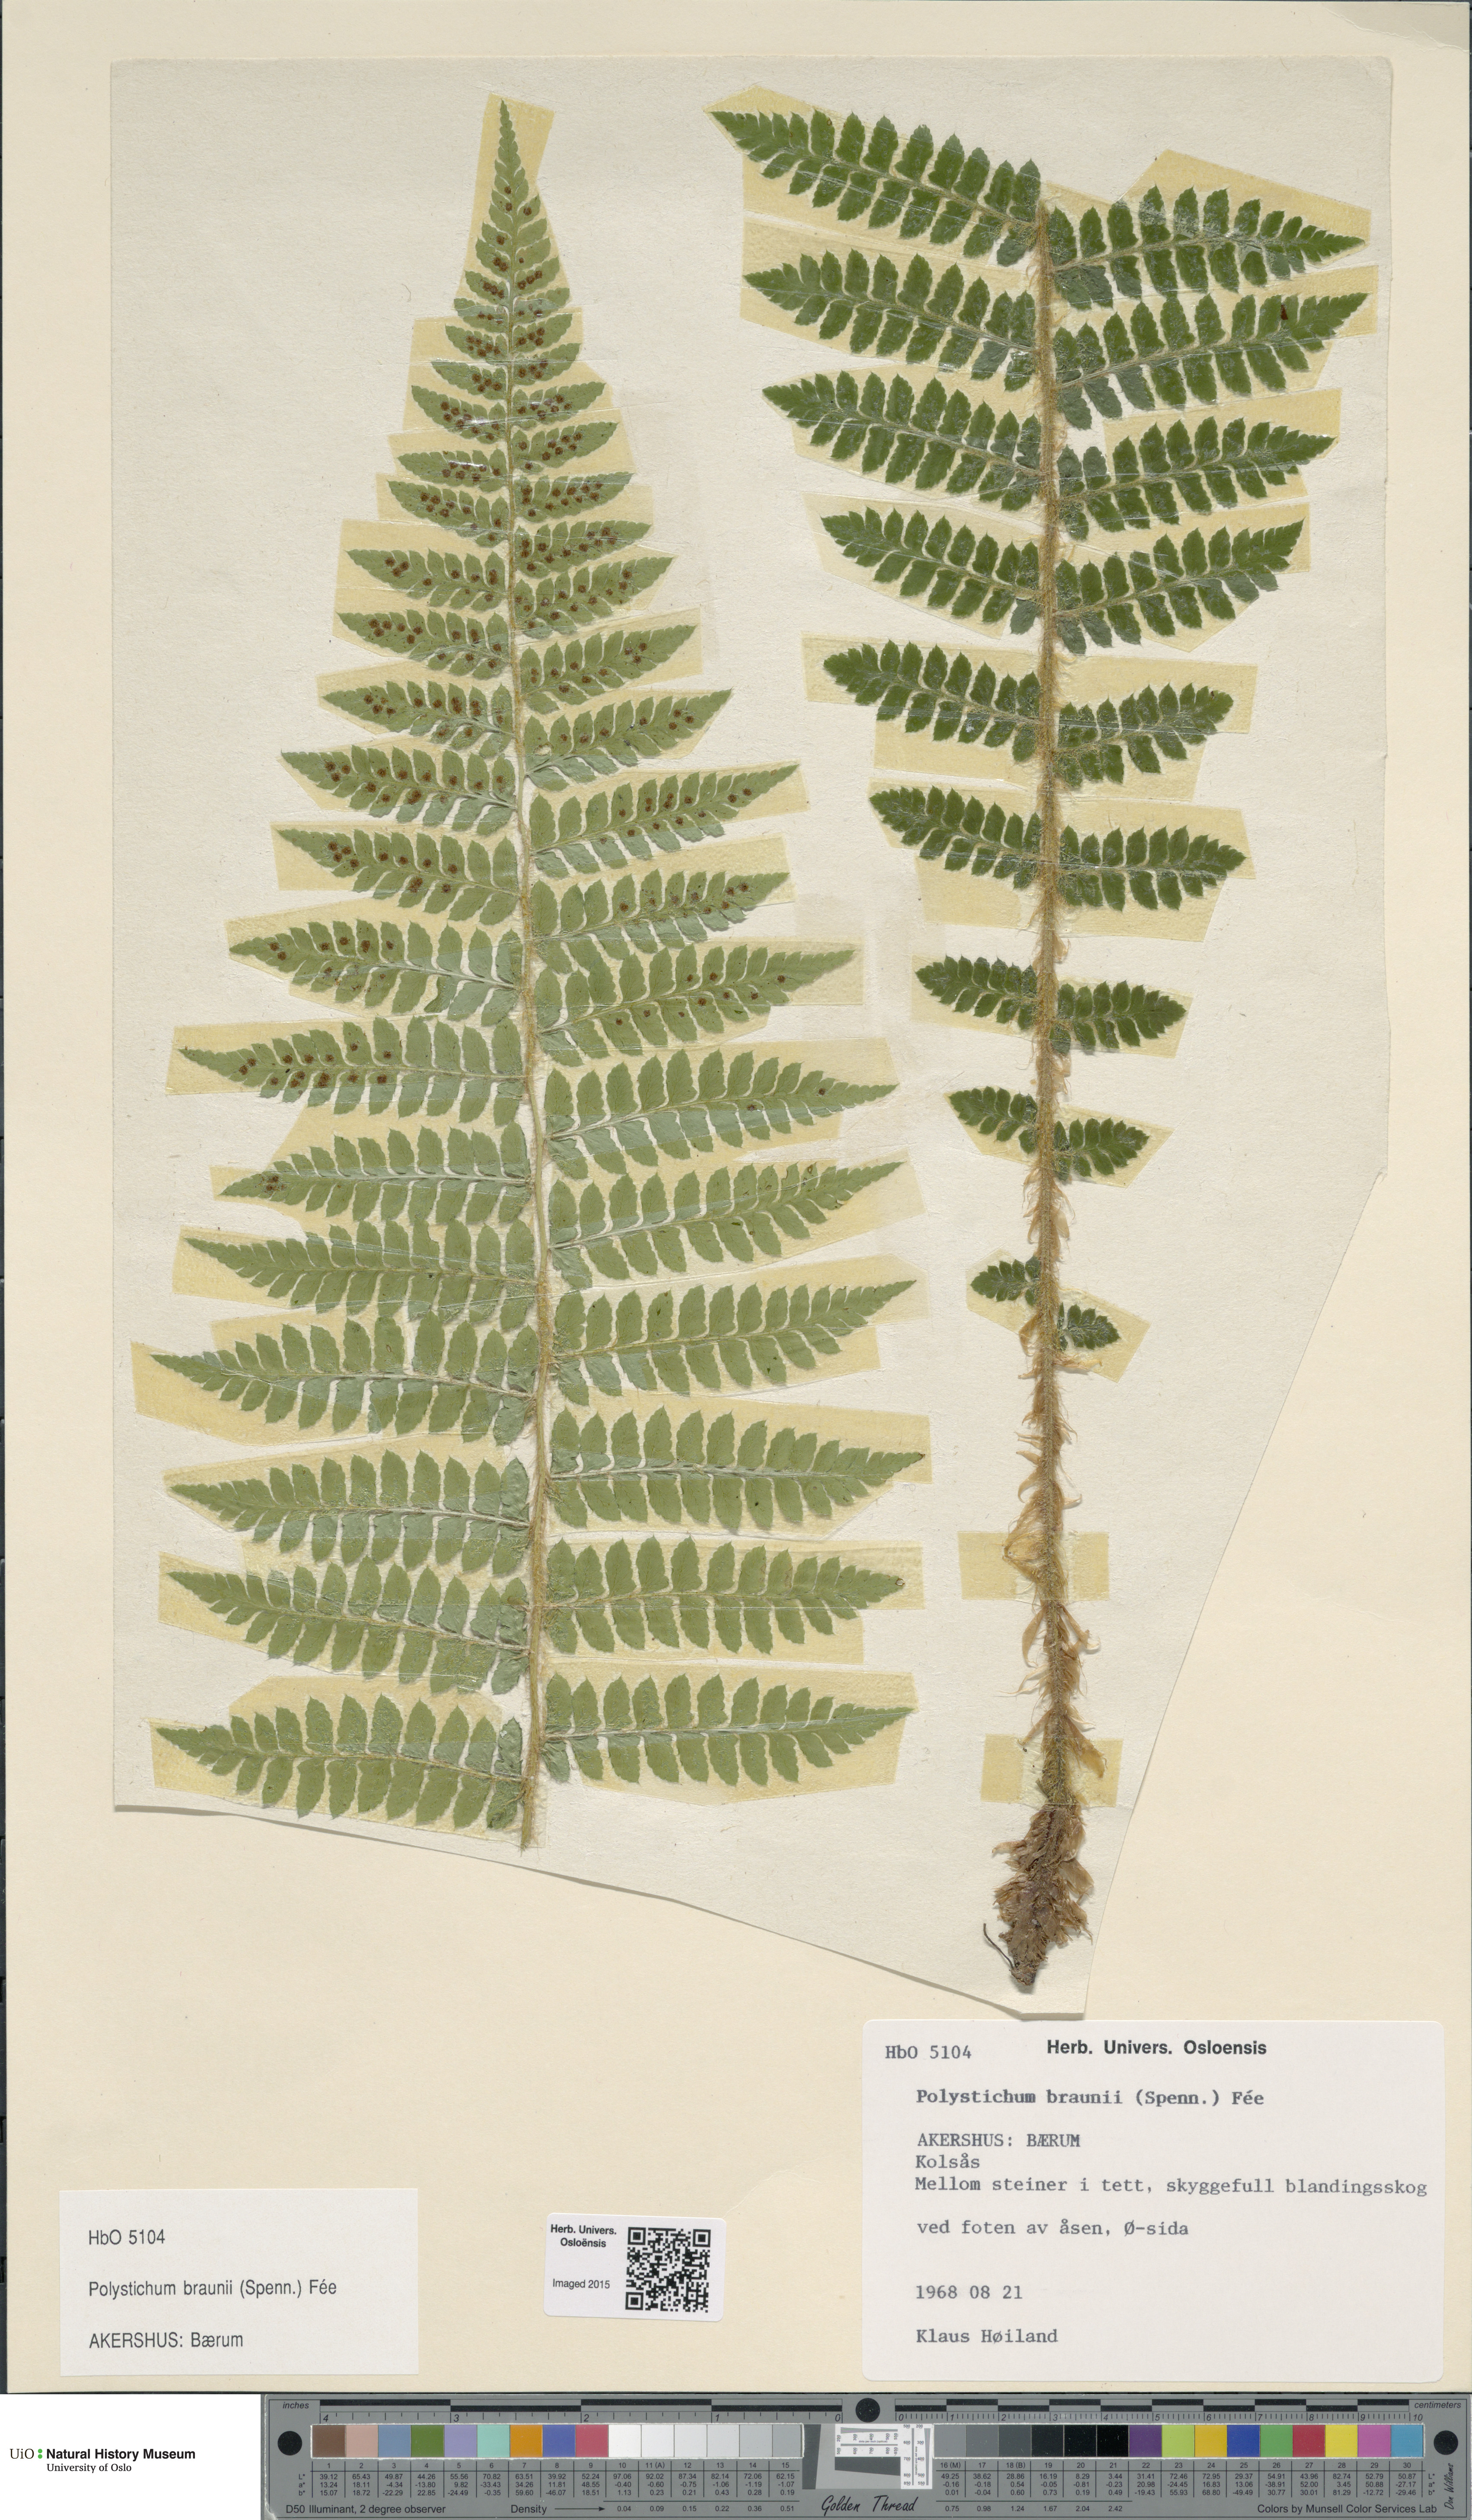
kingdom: Plantae
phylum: Tracheophyta
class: Polypodiopsida
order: Polypodiales
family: Dryopteridaceae
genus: Polystichum
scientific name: Polystichum braunii
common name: Braun's holly fern
